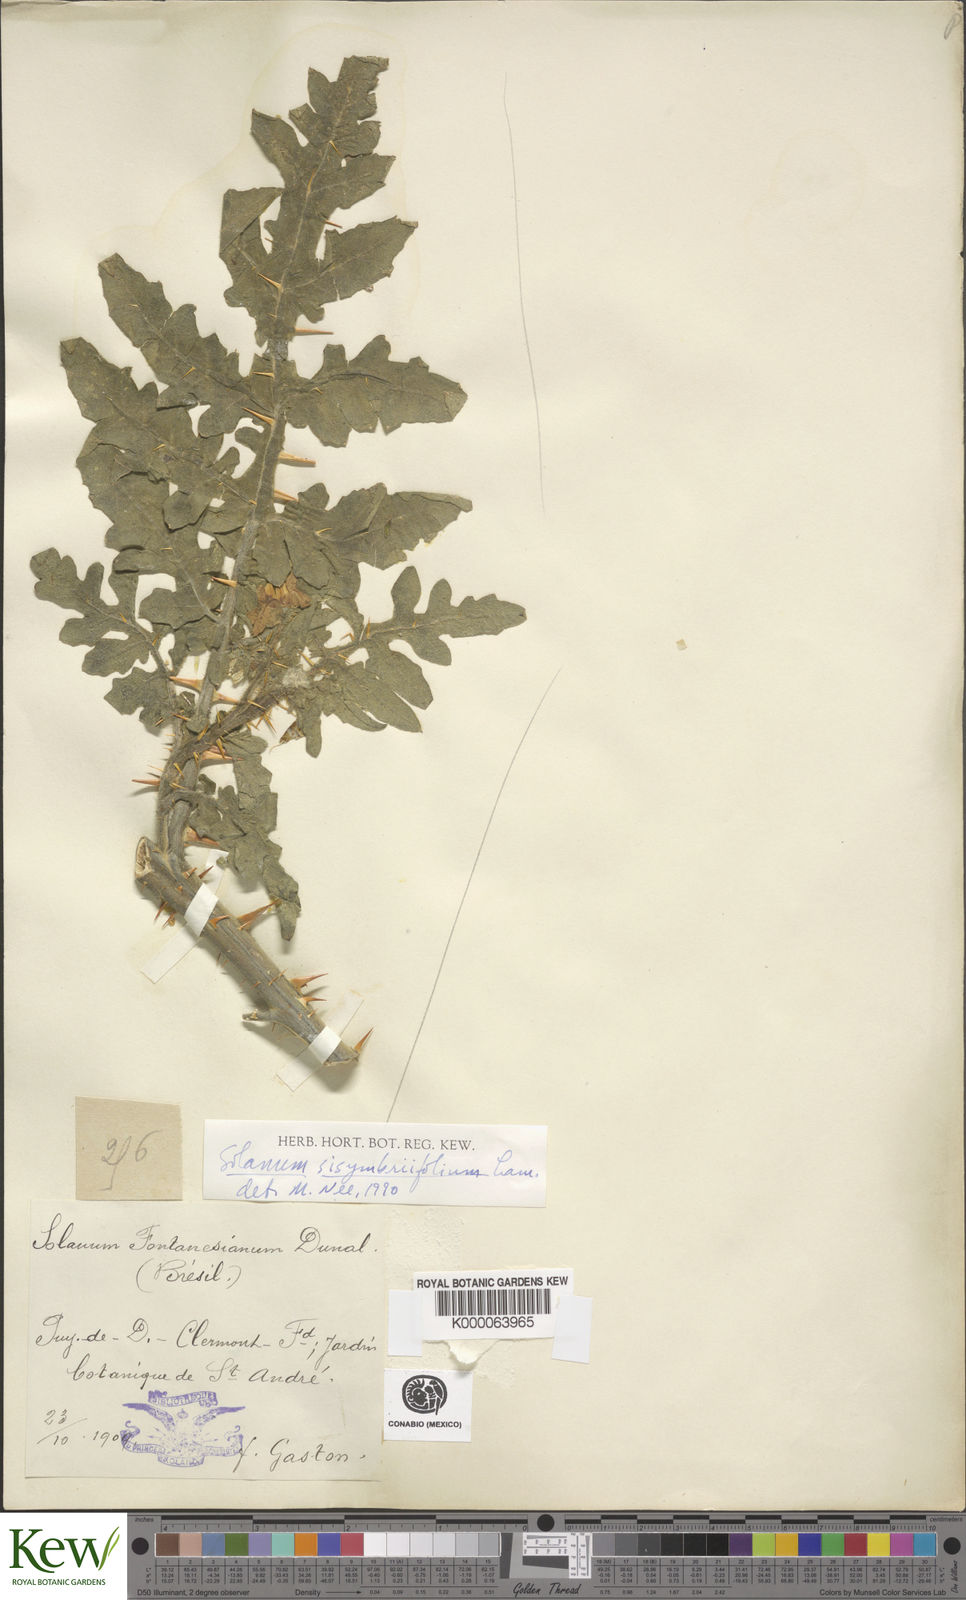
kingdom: Plantae
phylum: Tracheophyta
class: Magnoliopsida
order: Solanales
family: Solanaceae
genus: Solanum
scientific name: Solanum sisymbriifolium
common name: Red buffalo-bur
